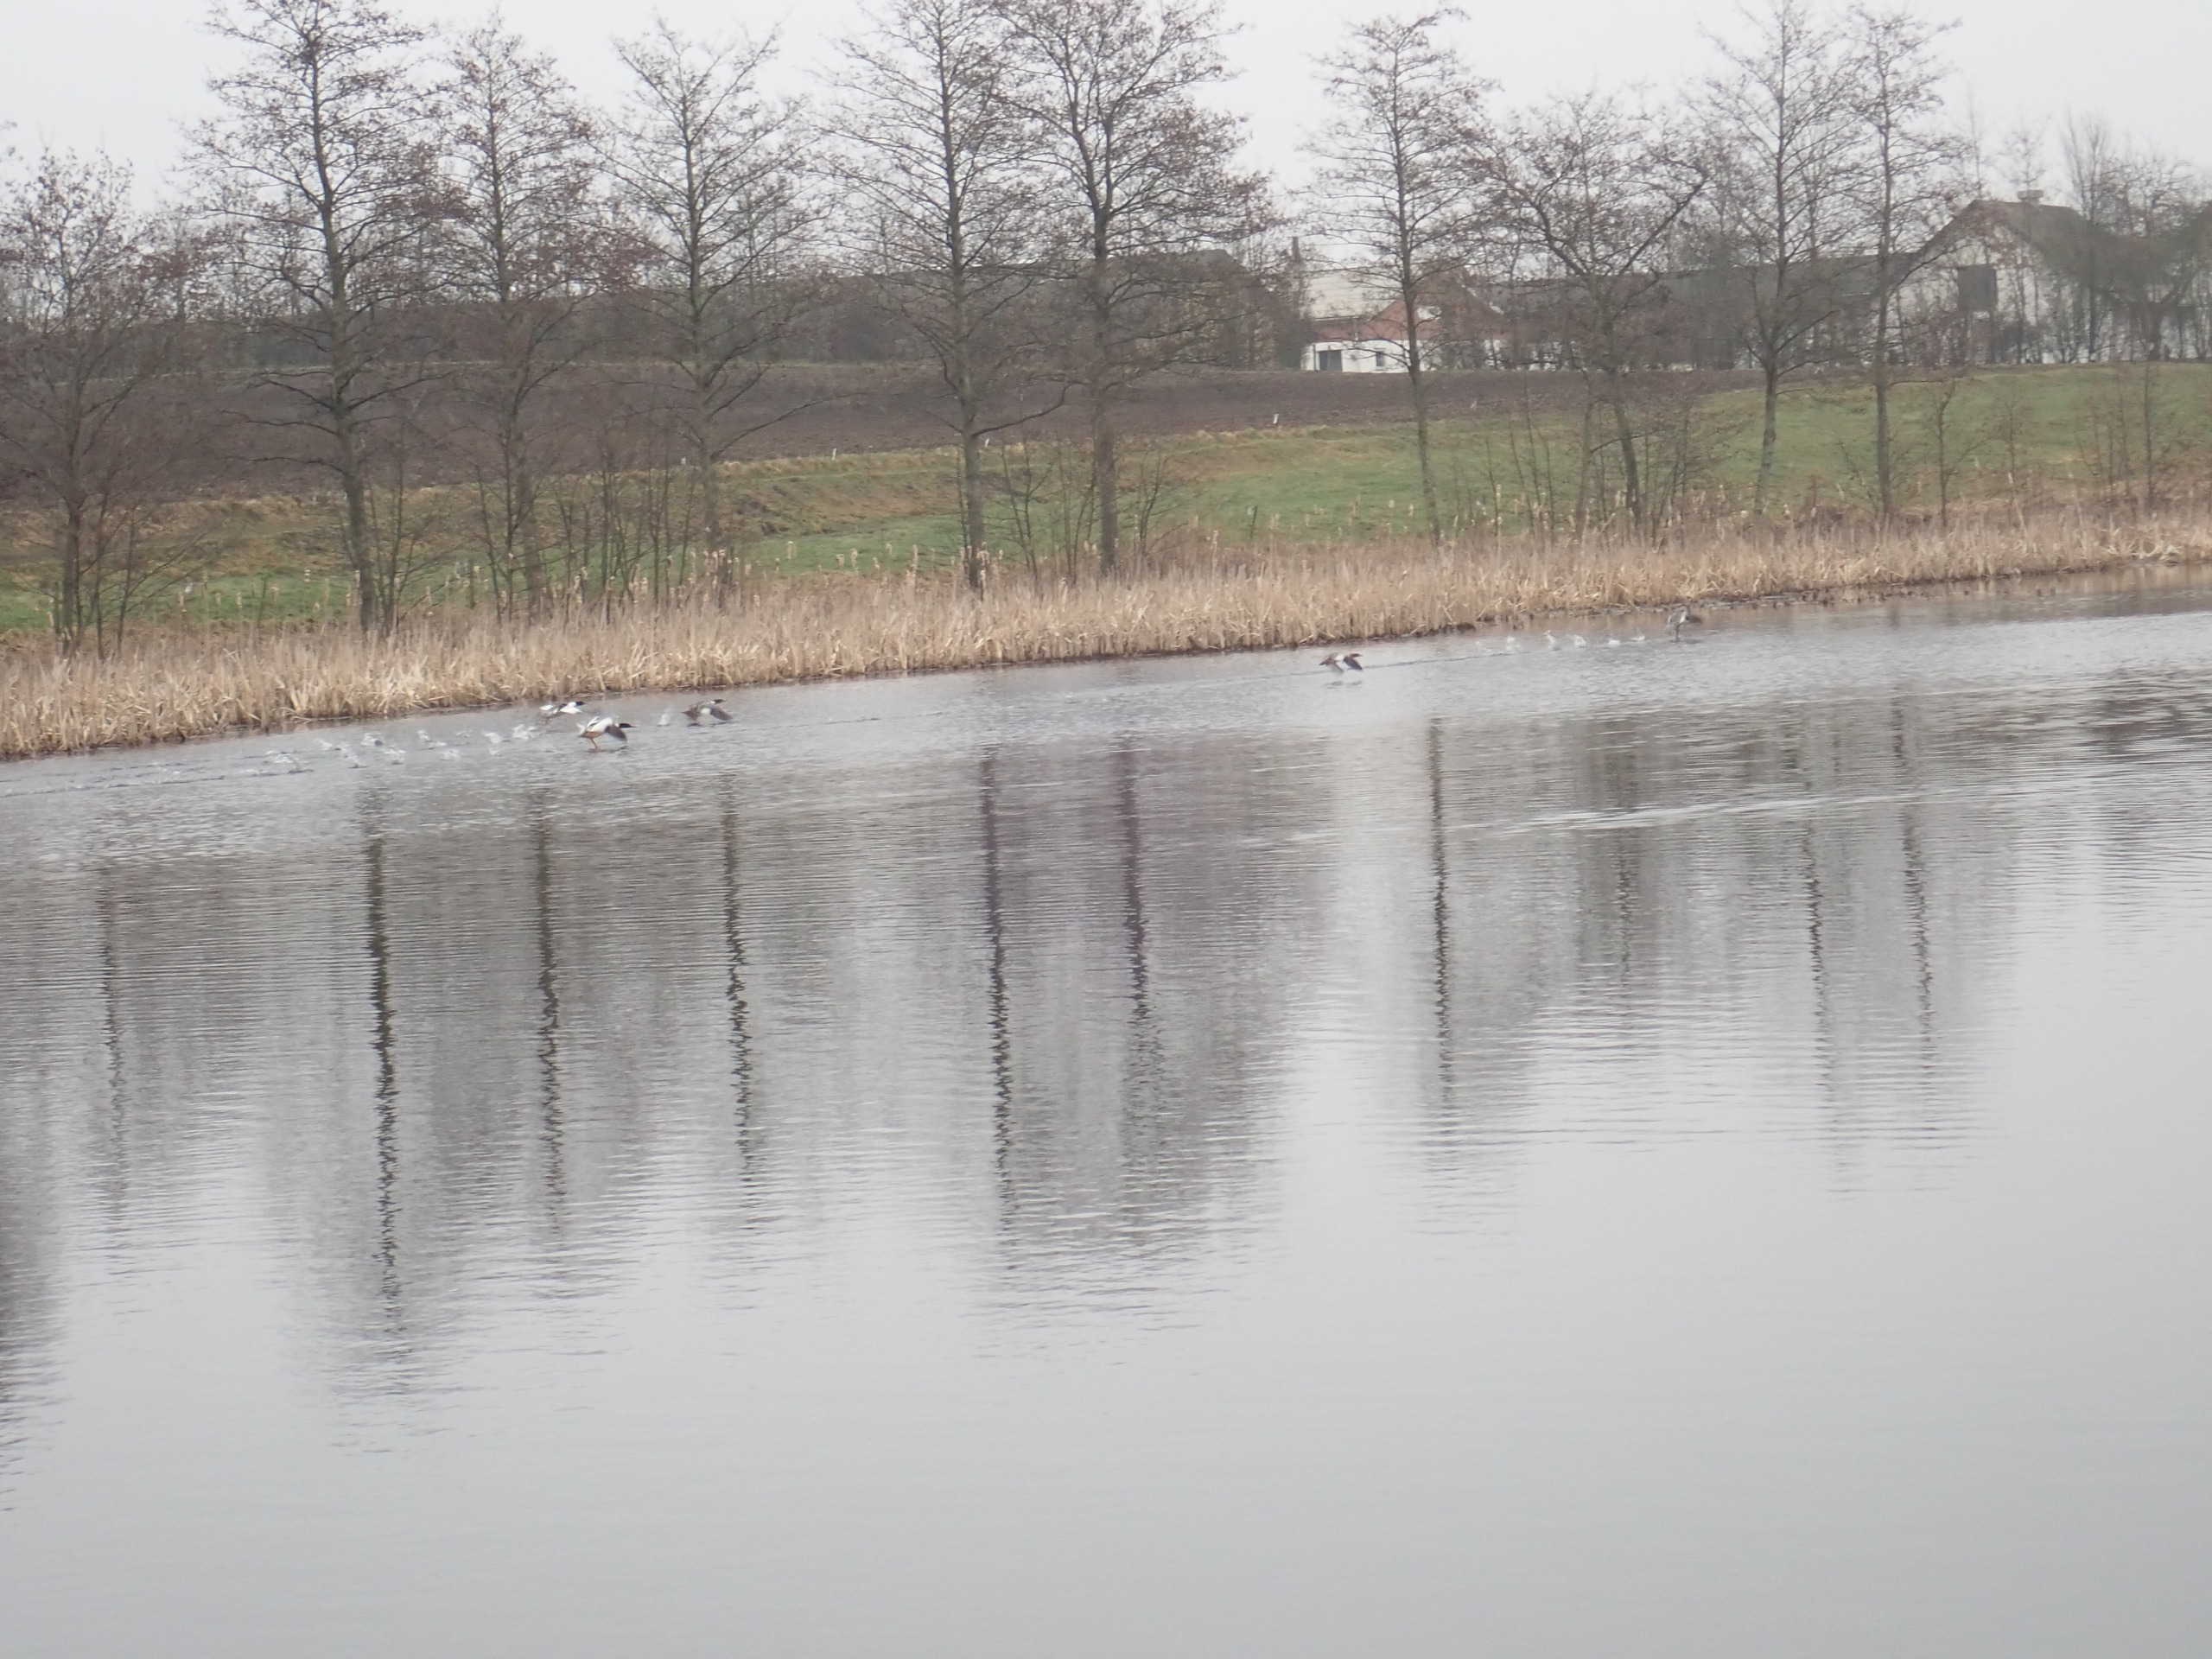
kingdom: Animalia
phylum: Chordata
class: Aves
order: Anseriformes
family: Anatidae
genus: Mergus
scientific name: Mergus merganser
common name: Stor skallesluger
